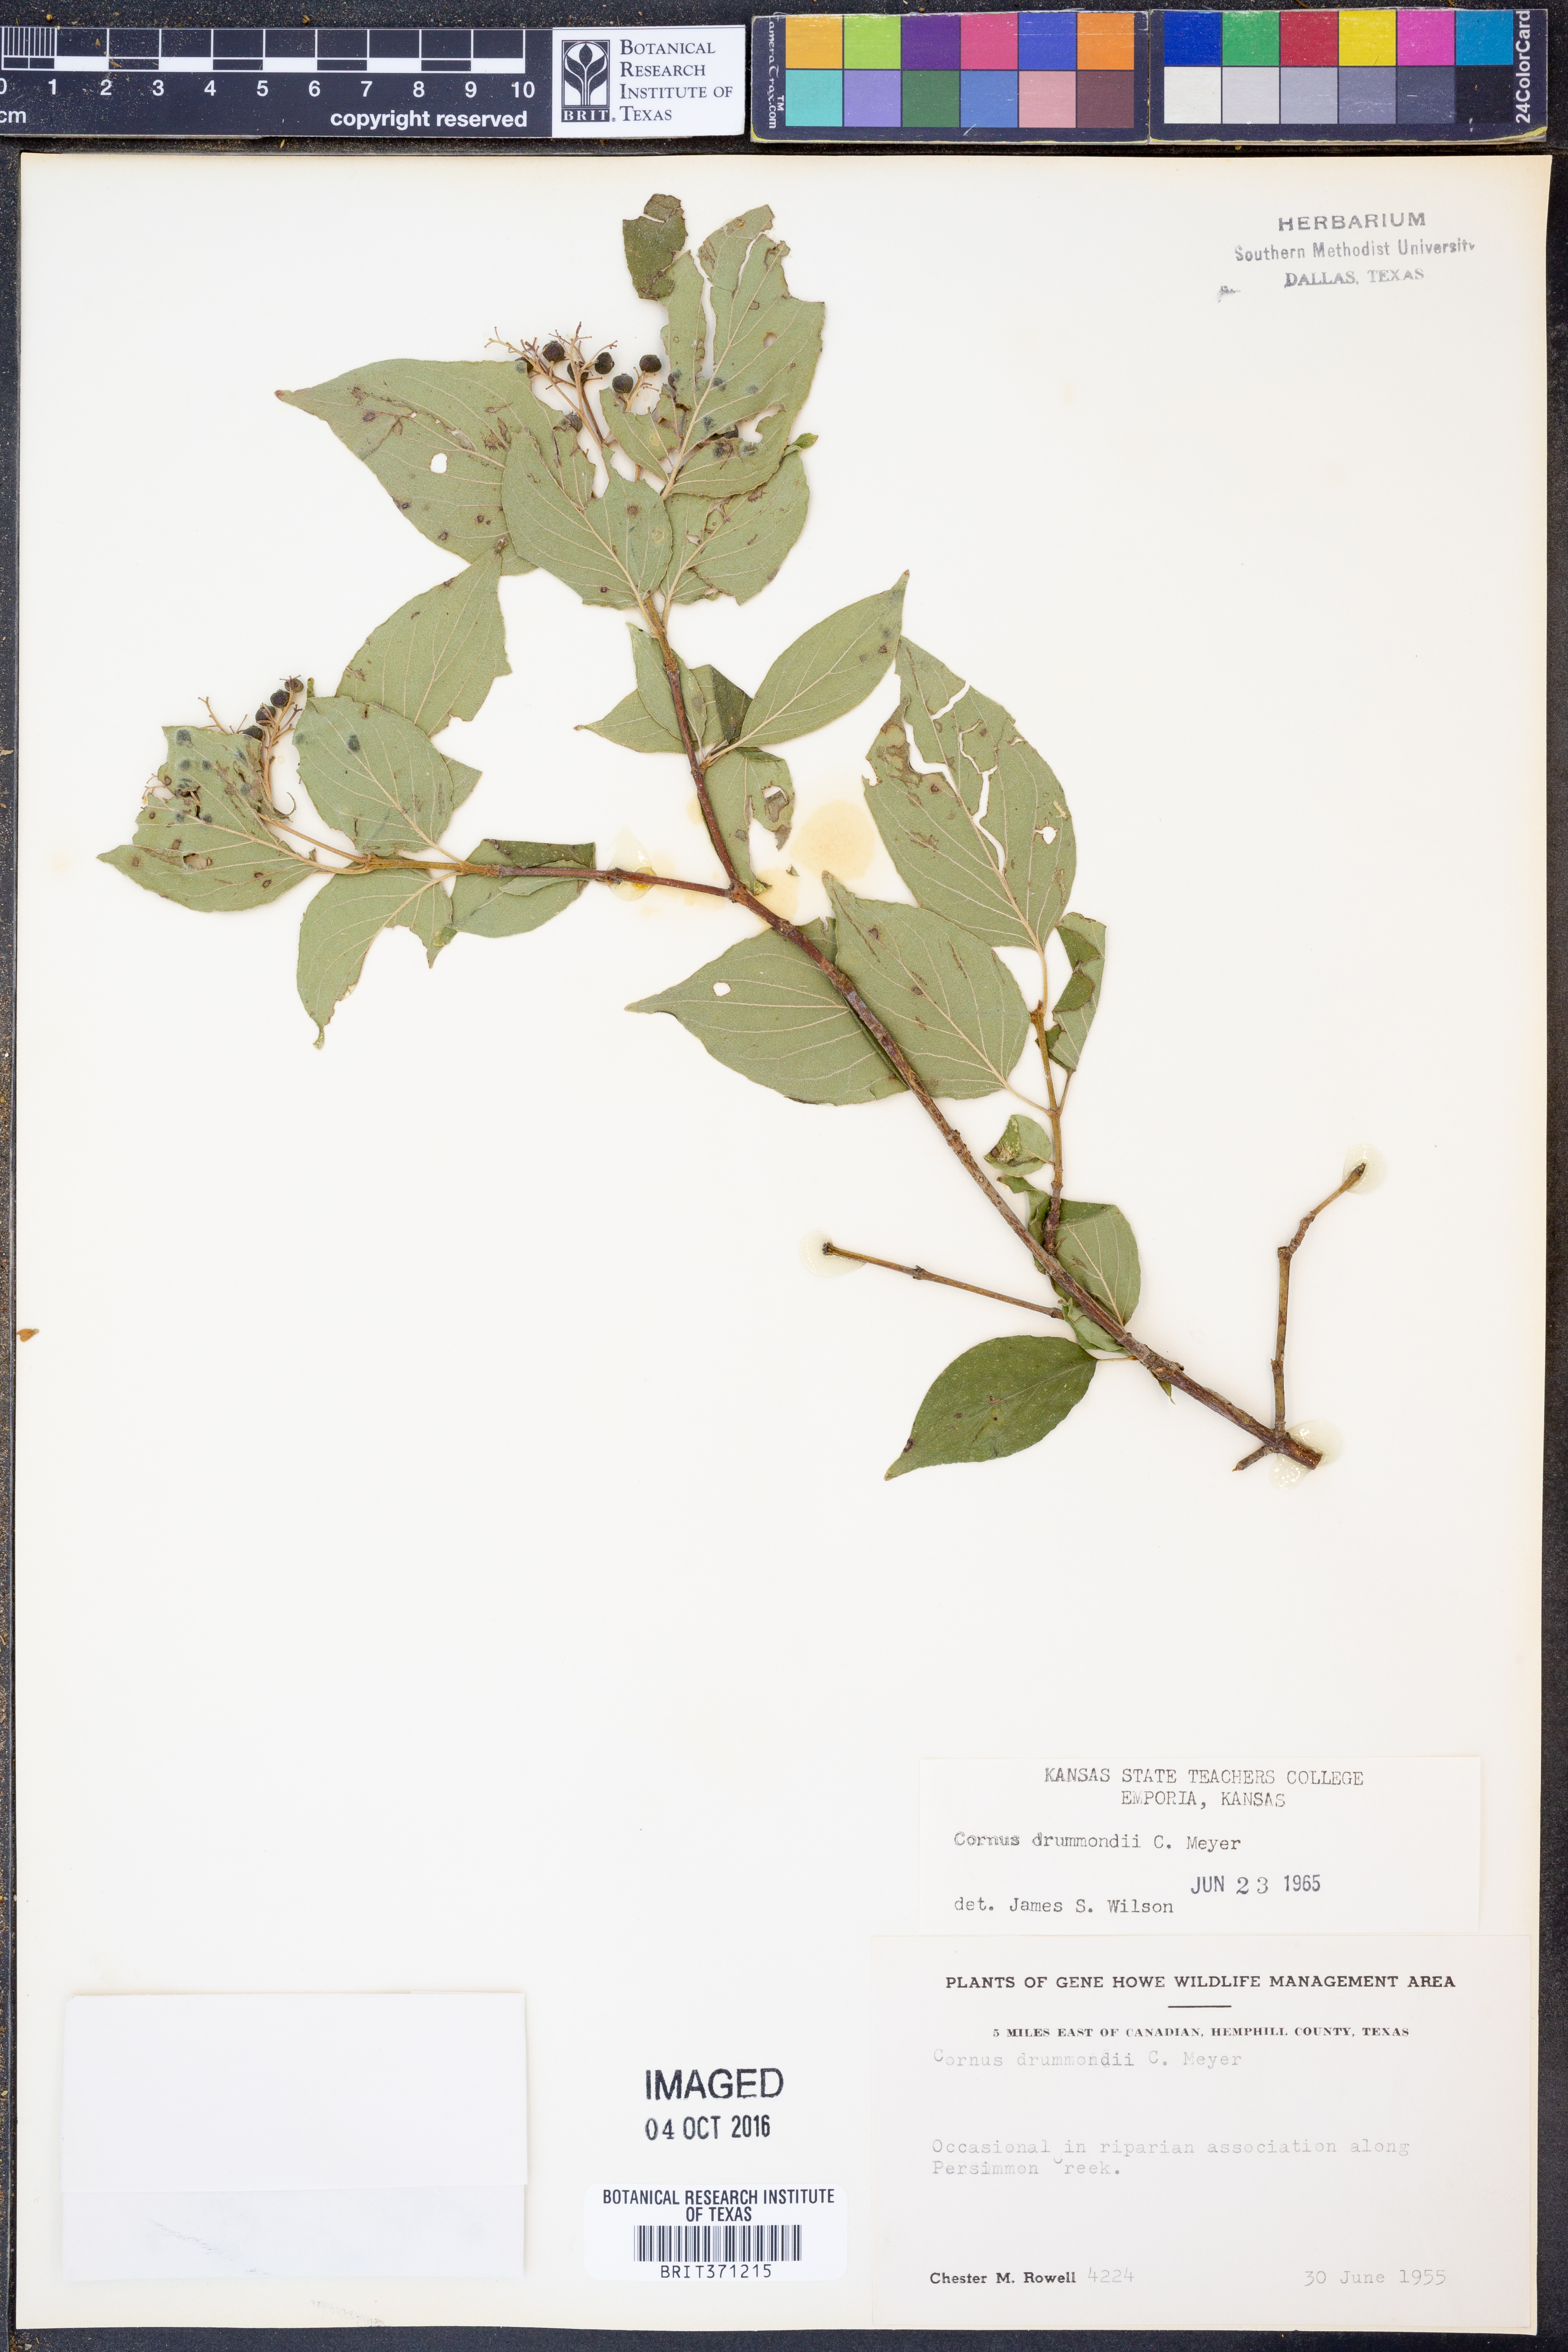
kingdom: Plantae
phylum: Tracheophyta
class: Magnoliopsida
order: Cornales
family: Cornaceae
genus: Cornus
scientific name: Cornus drummondii
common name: Rough-leaf dogwood
